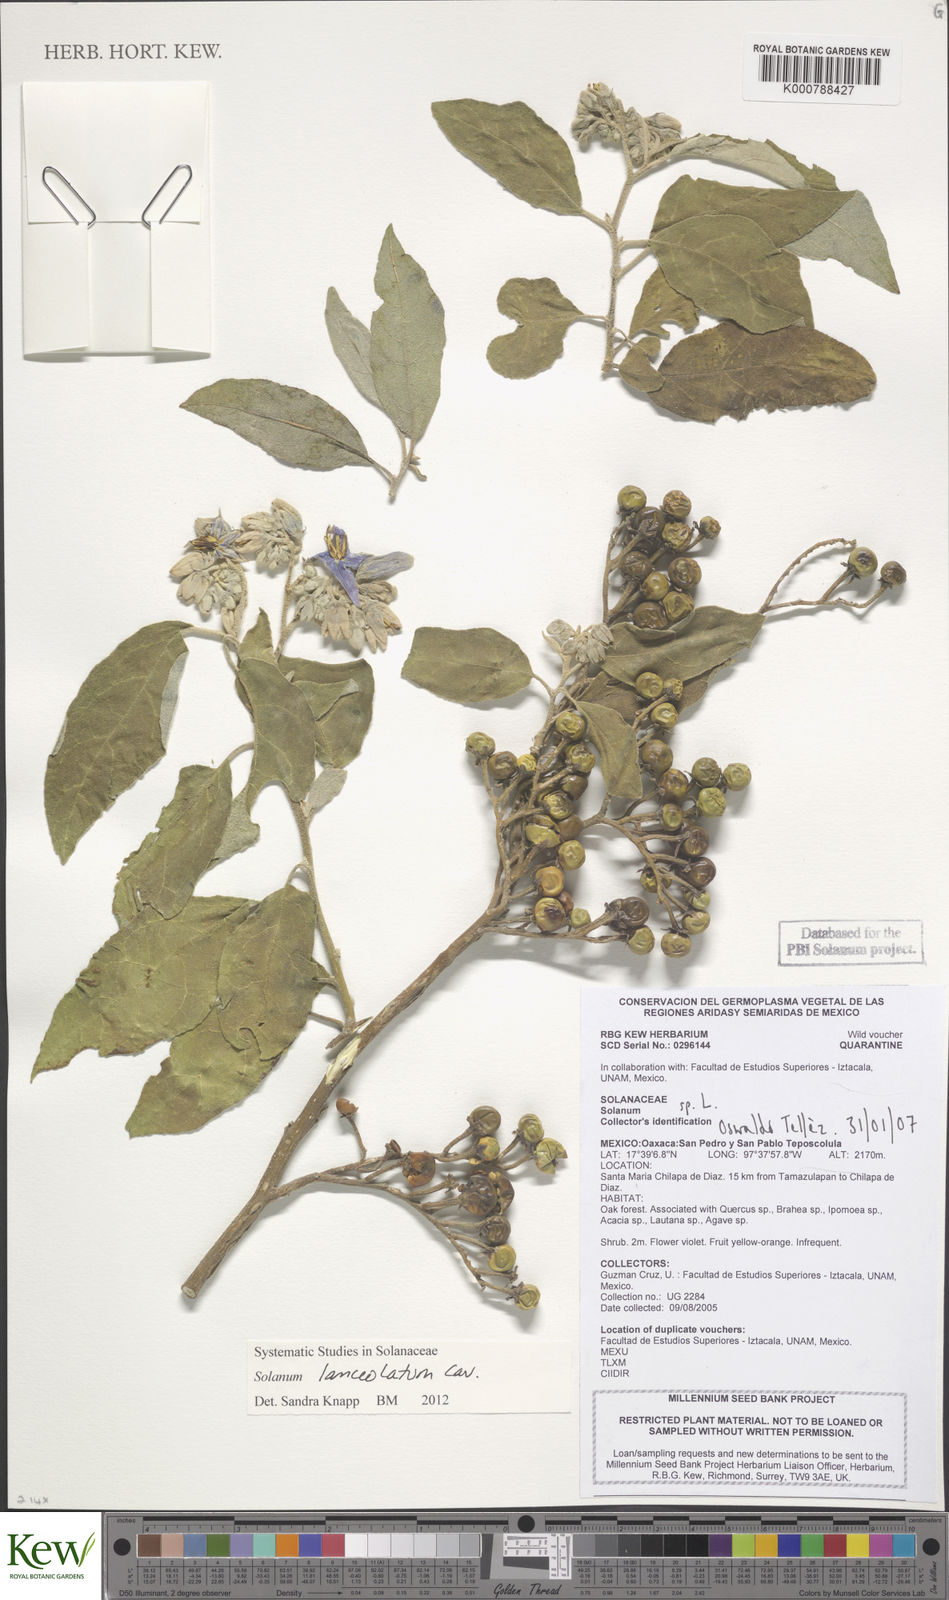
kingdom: Plantae
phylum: Tracheophyta
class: Magnoliopsida
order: Solanales
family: Solanaceae
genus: Solanum
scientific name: Solanum lanceolatum
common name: Orangeberry nightshade
